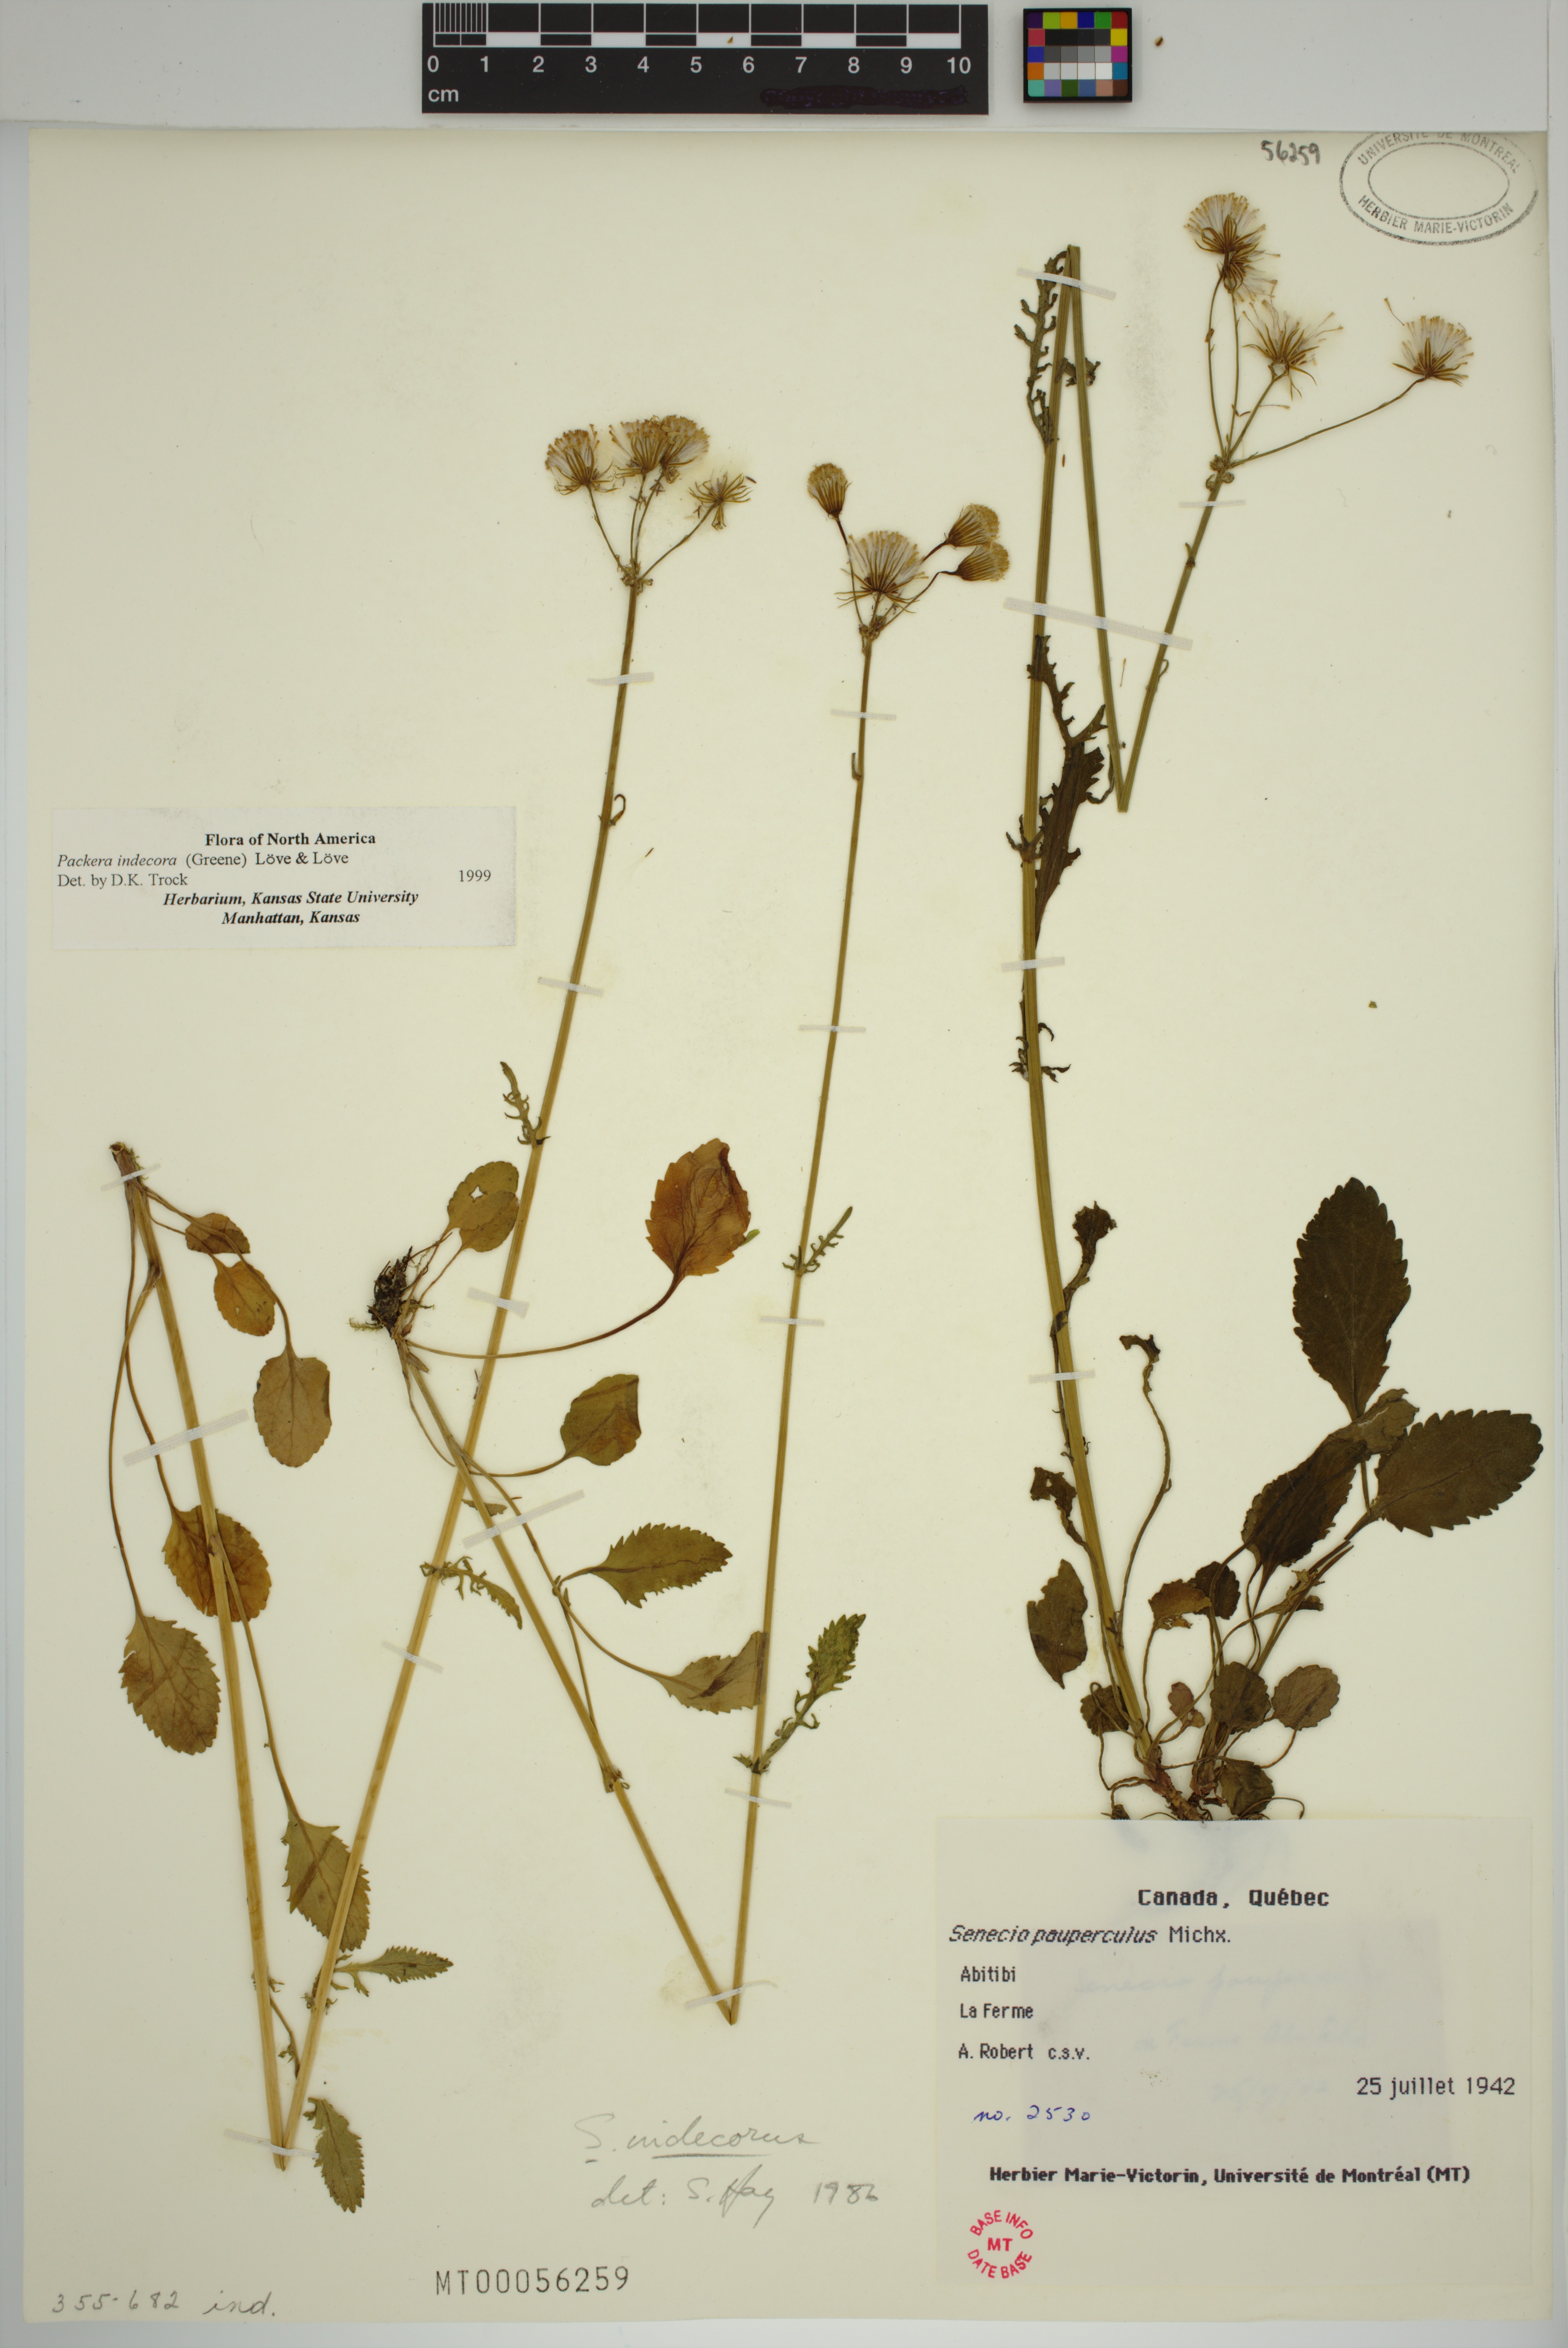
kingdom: Plantae
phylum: Tracheophyta
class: Magnoliopsida
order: Asterales
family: Asteraceae
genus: Packera
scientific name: Packera indecora
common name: Elegant groundsel
